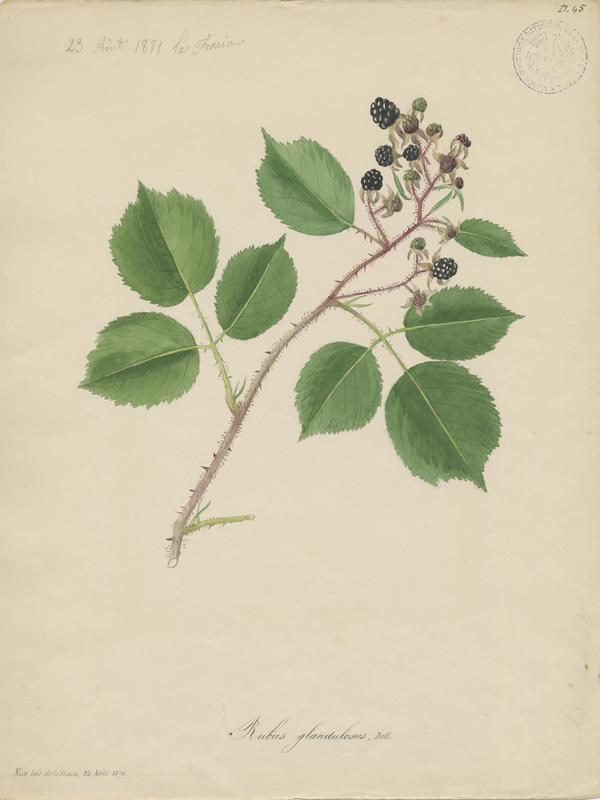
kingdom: Plantae
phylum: Tracheophyta
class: Magnoliopsida
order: Rosales
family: Rosaceae
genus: Rubus
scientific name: Rubus hirtus
